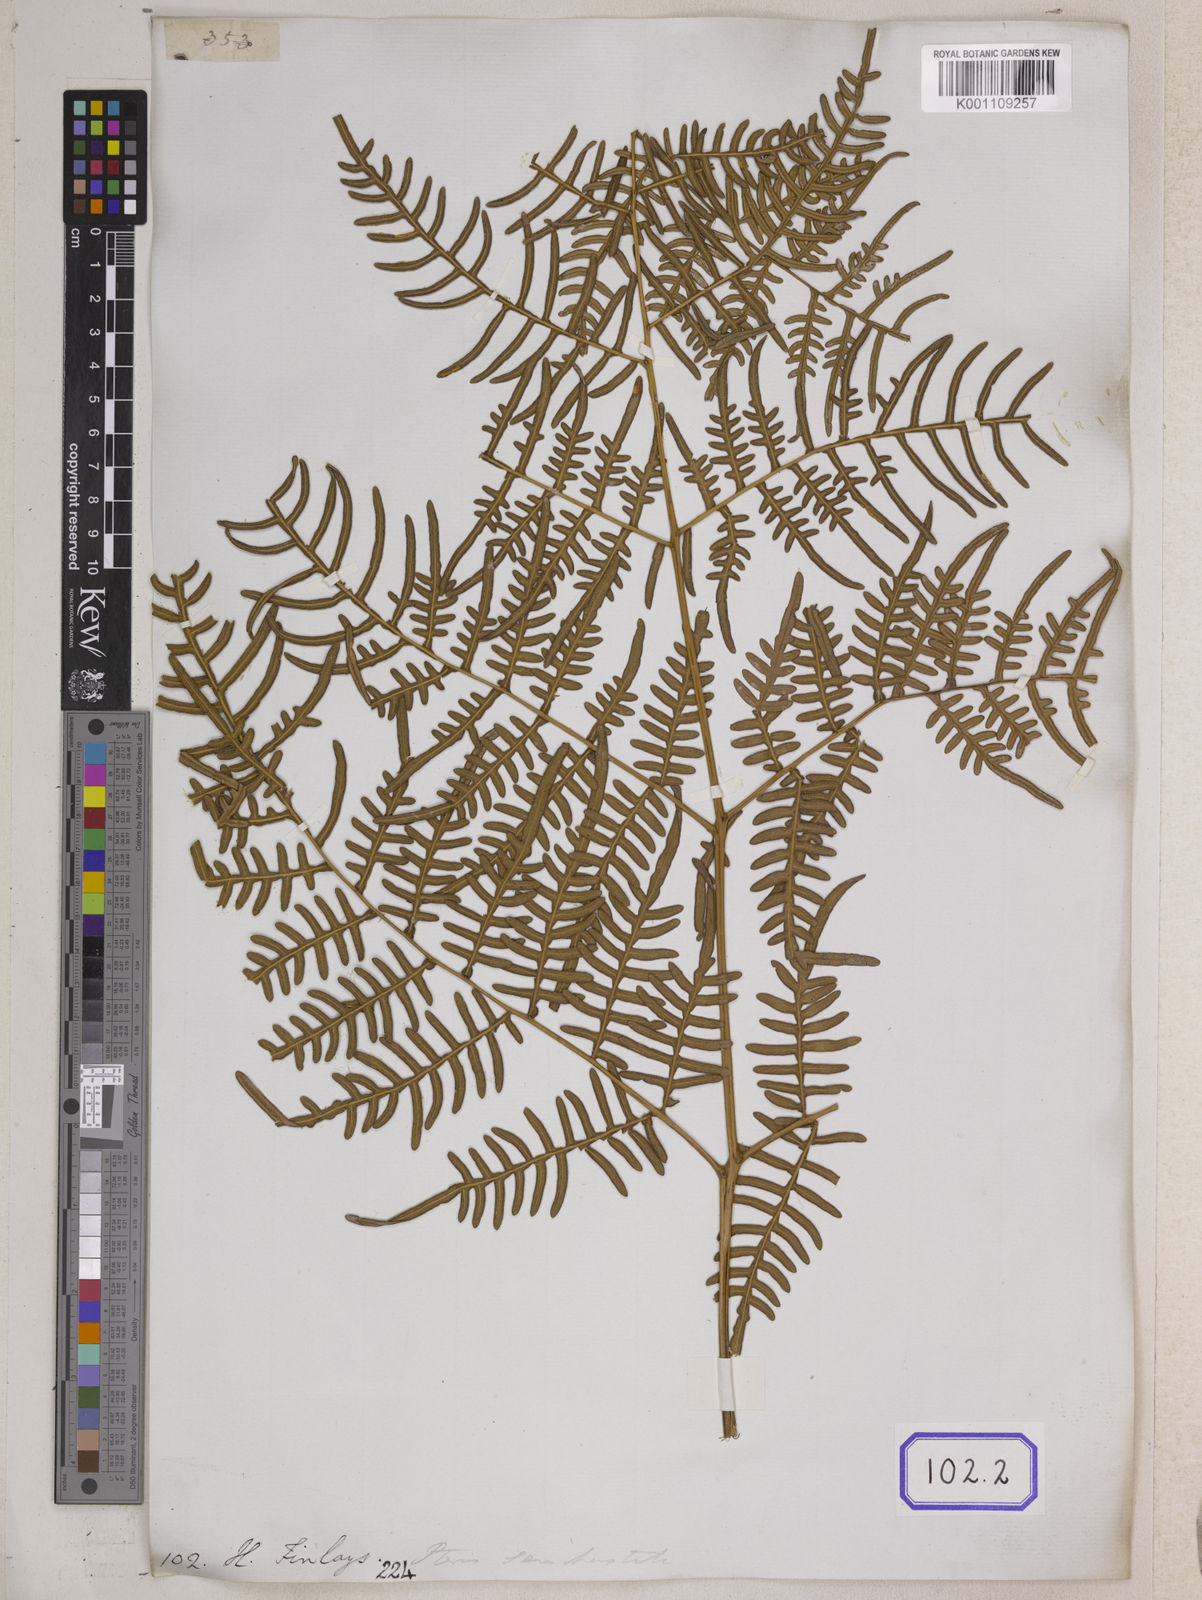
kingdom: Plantae
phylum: Tracheophyta
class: Polypodiopsida
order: Polypodiales
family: Dennstaedtiaceae
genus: Pteridium
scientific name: Pteridium rostratum
